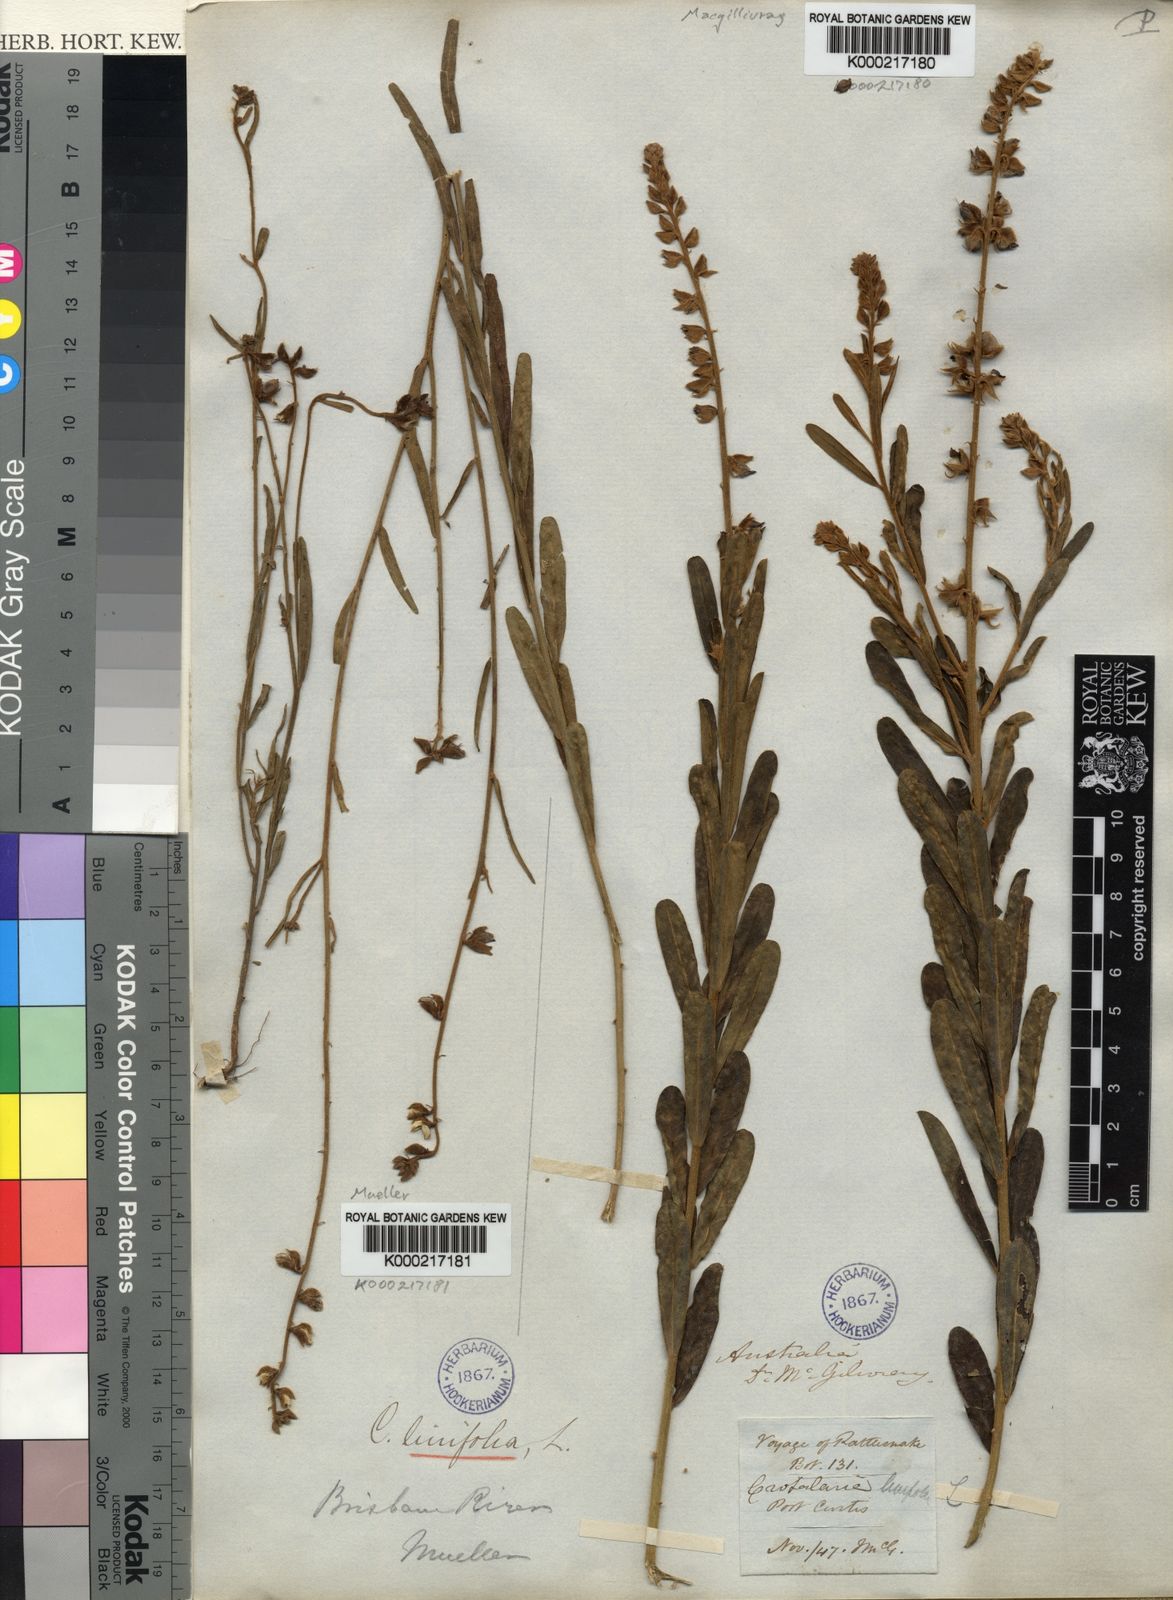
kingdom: Plantae
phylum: Tracheophyta
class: Magnoliopsida
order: Fabales
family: Fabaceae
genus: Crotalaria
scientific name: Crotalaria linifolia
